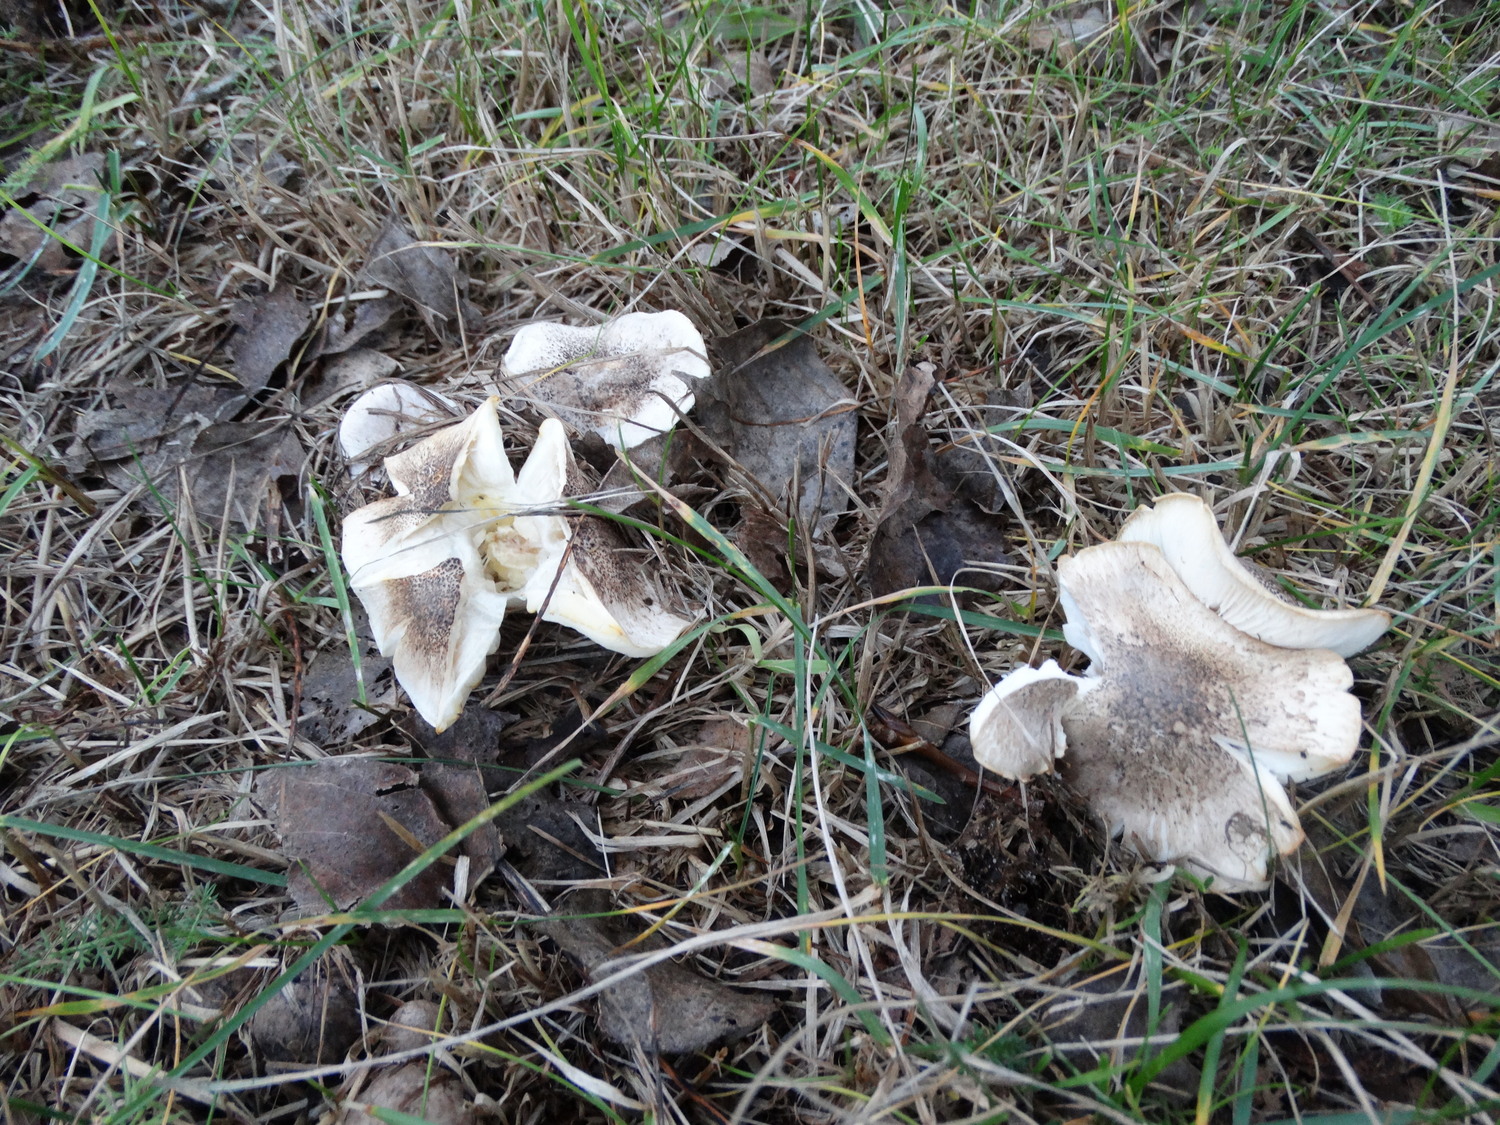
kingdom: Fungi
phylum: Basidiomycota
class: Agaricomycetes
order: Agaricales
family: Tricholomataceae
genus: Tricholoma
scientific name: Tricholoma
